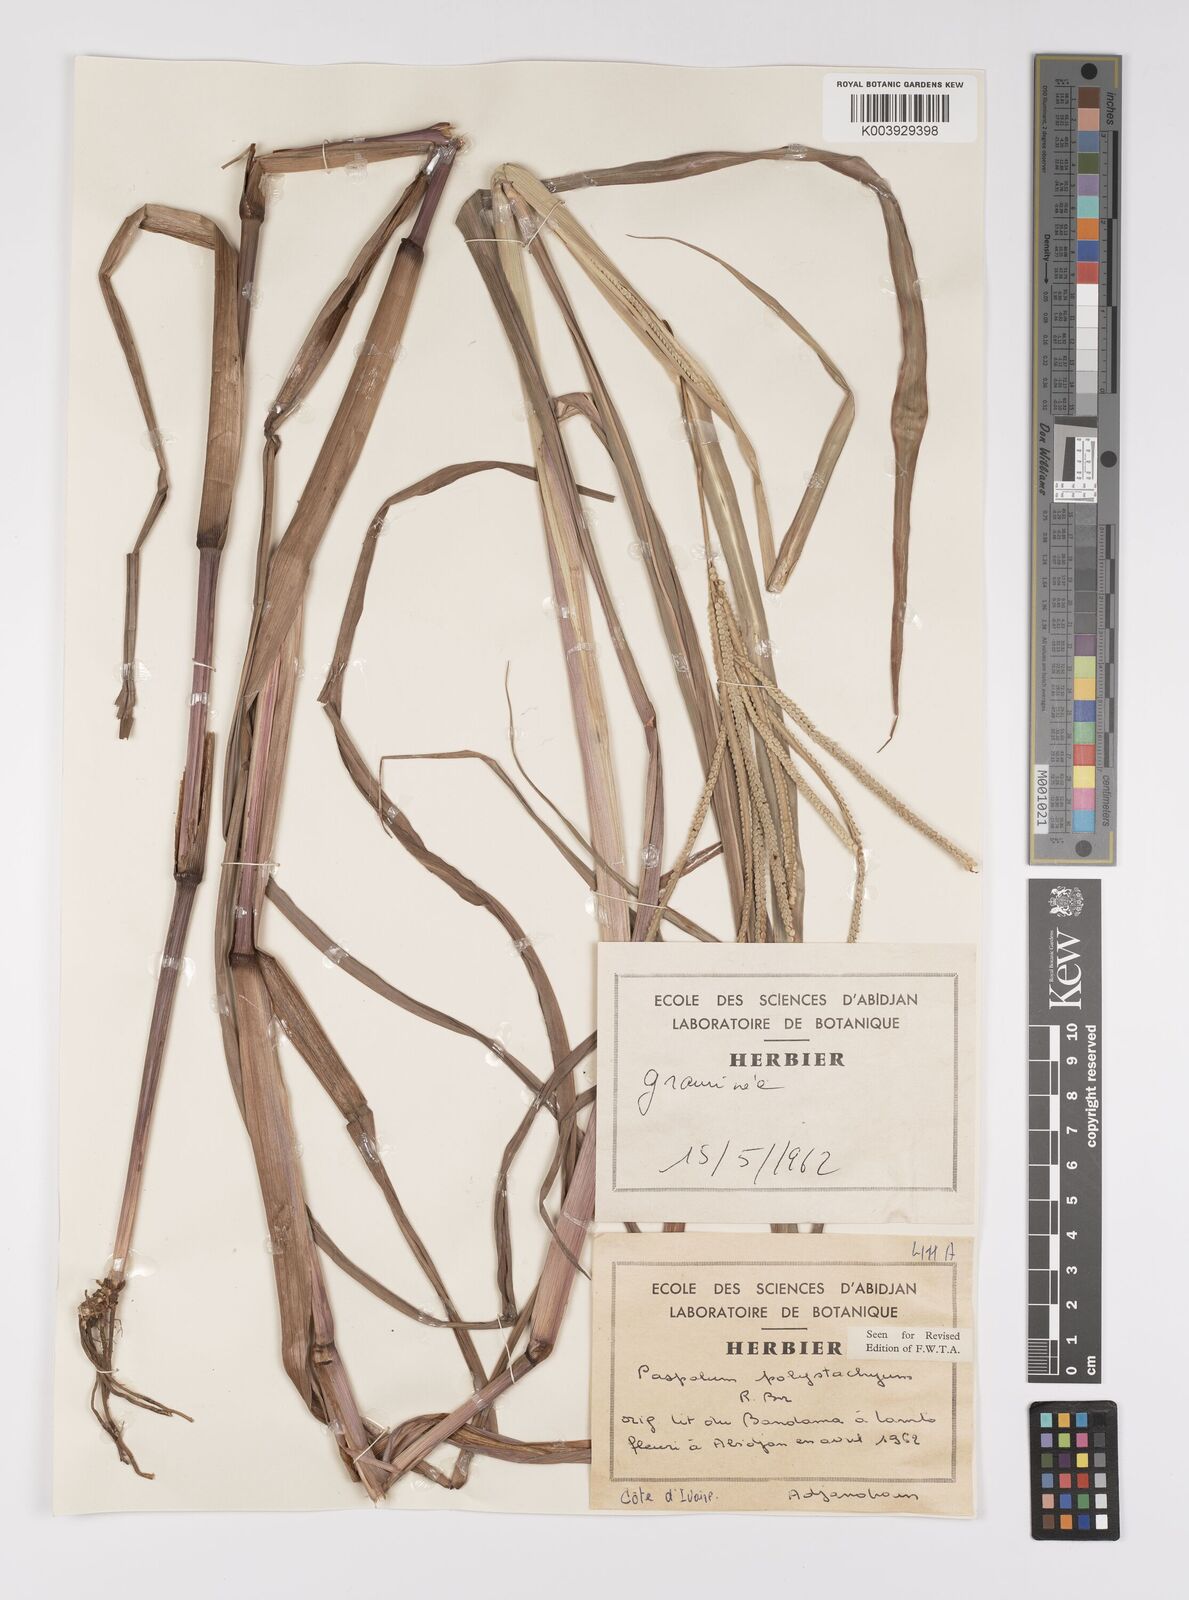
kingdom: Plantae
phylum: Tracheophyta
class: Liliopsida
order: Poales
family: Poaceae
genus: Paspalum
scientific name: Paspalum scrobiculatum
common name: Kodo millet
